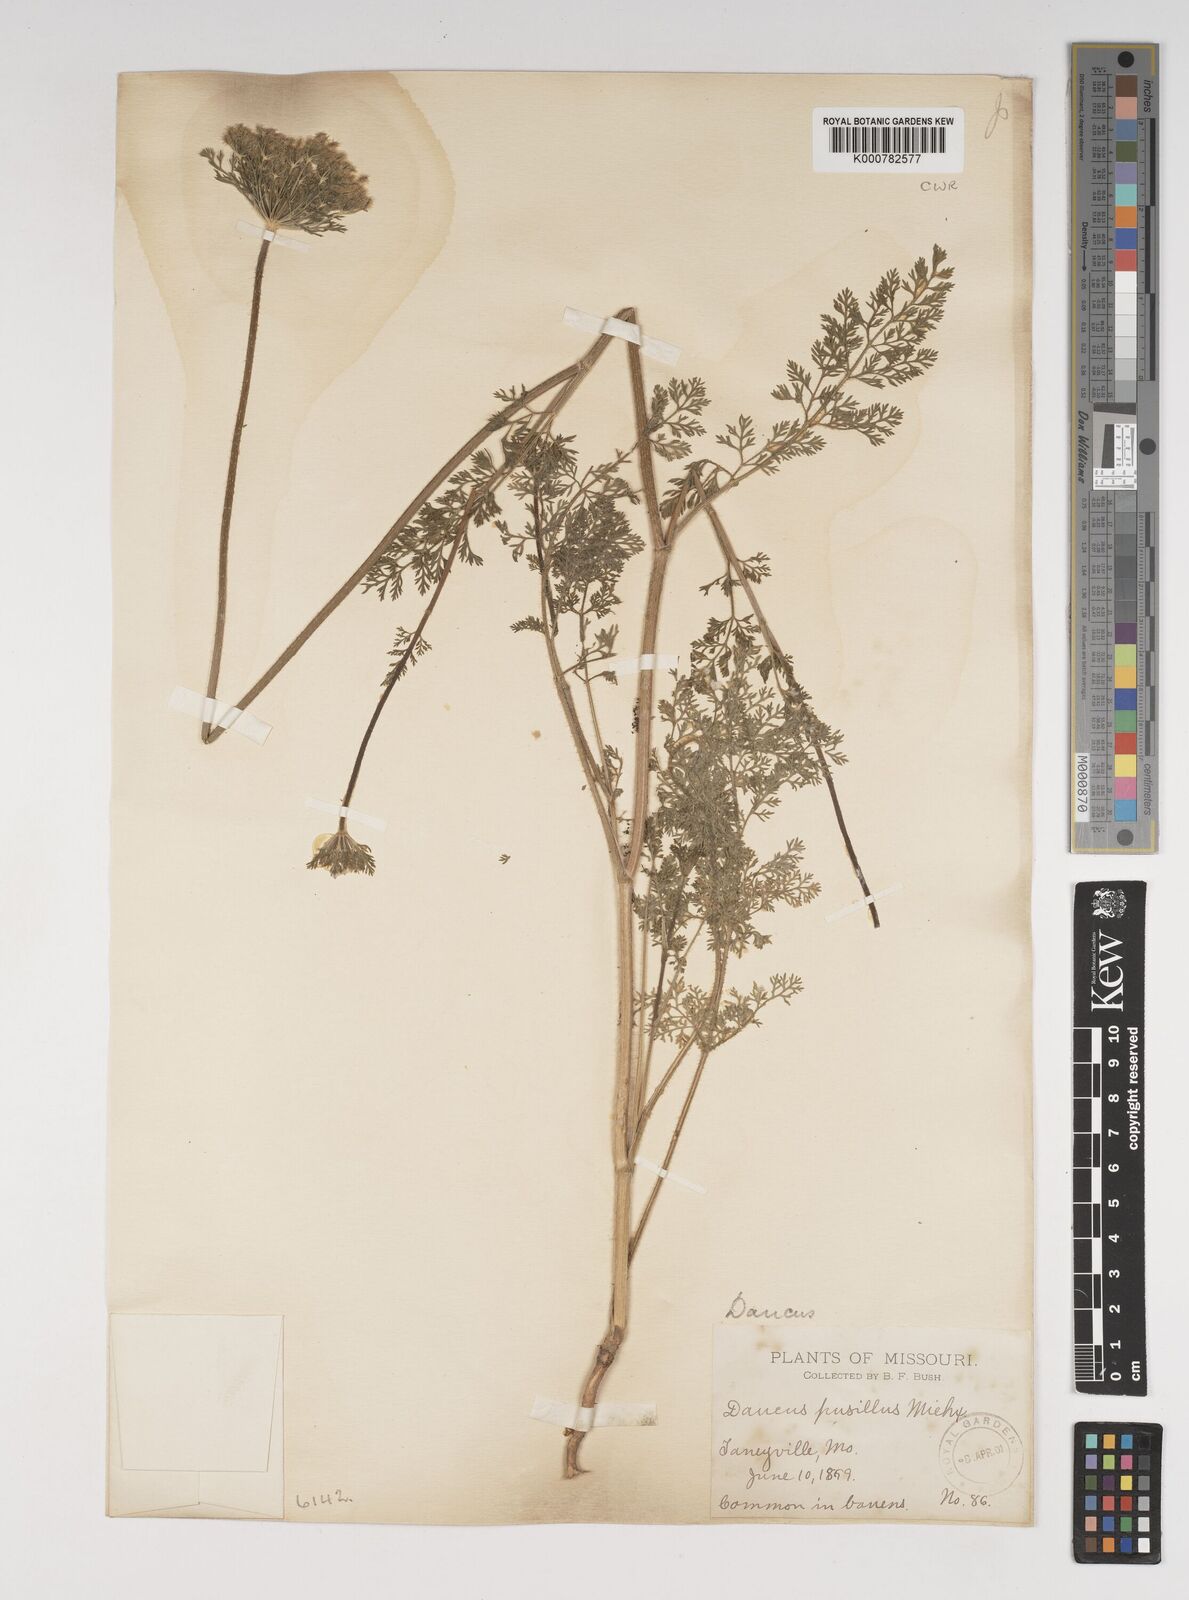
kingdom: Plantae
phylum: Tracheophyta
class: Magnoliopsida
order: Apiales
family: Apiaceae
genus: Daucus
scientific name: Daucus pusillus
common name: Southwest wild carrot
